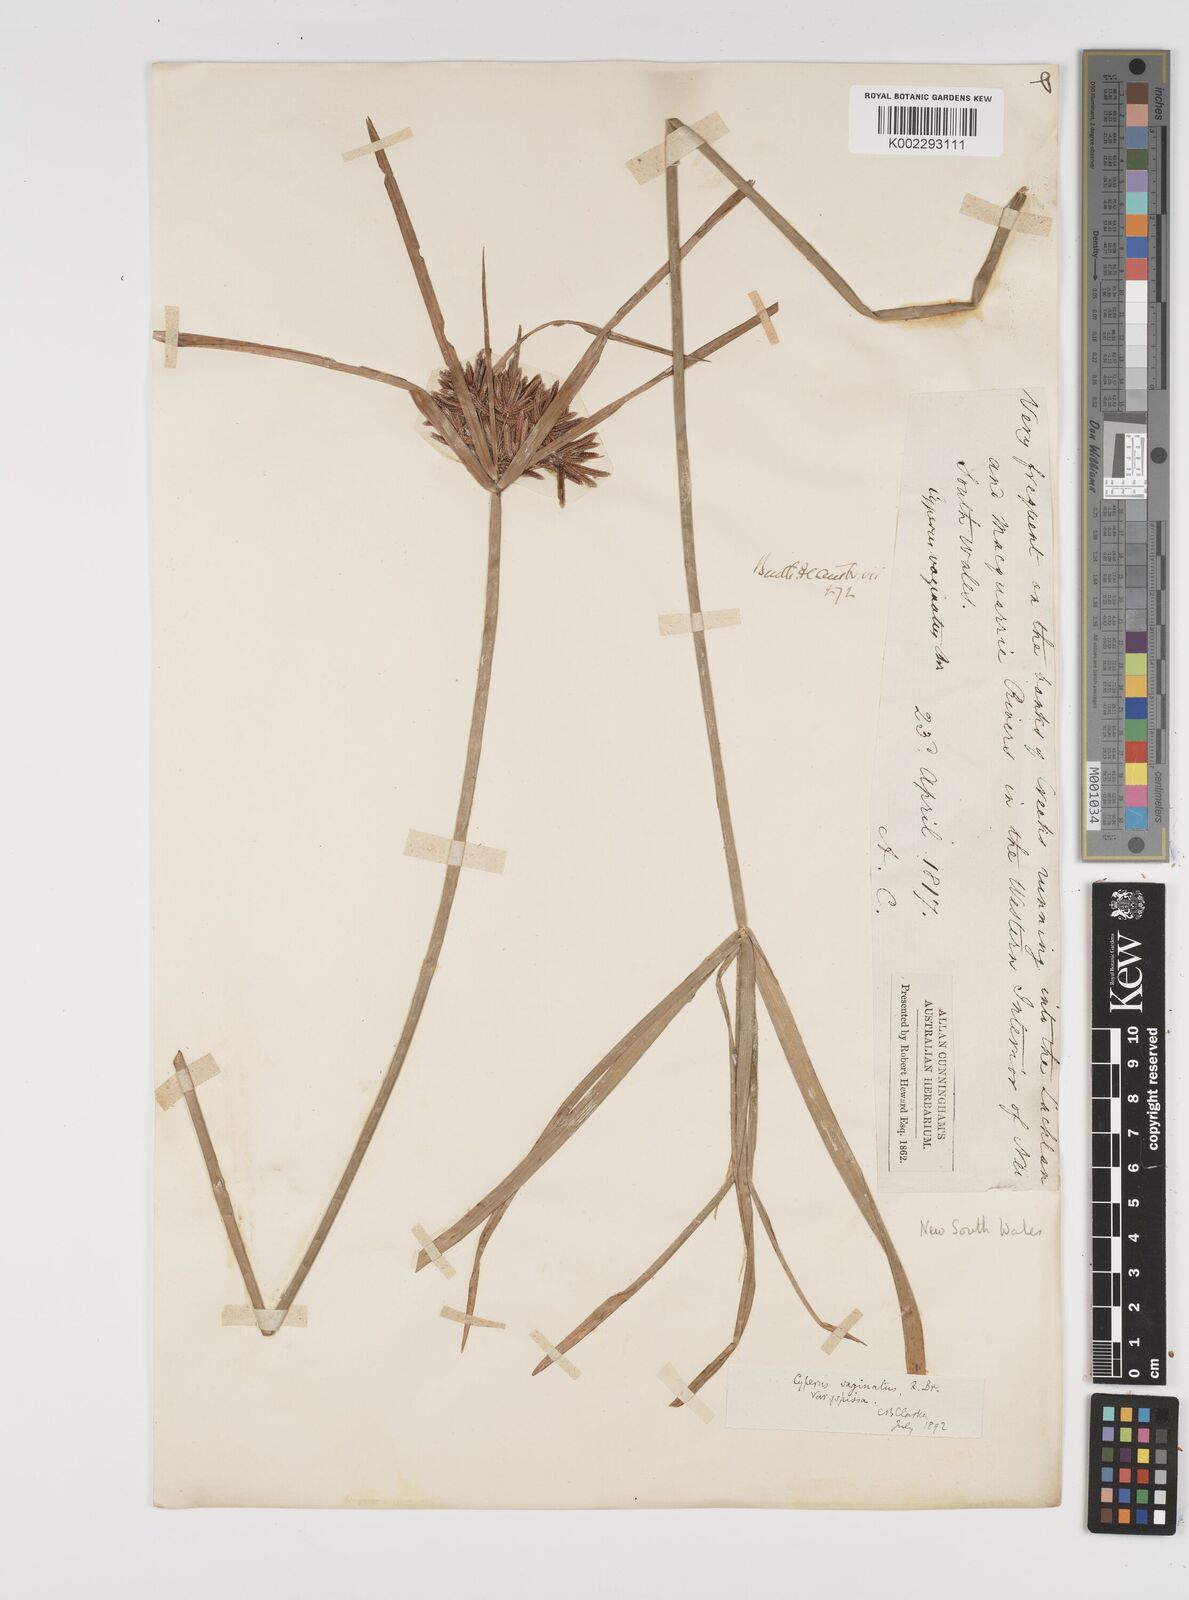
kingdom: Plantae
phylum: Tracheophyta
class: Liliopsida
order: Poales
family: Cyperaceae
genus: Cyperus
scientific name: Cyperus vaginatus
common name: Stiff-leaved flat-sedge
